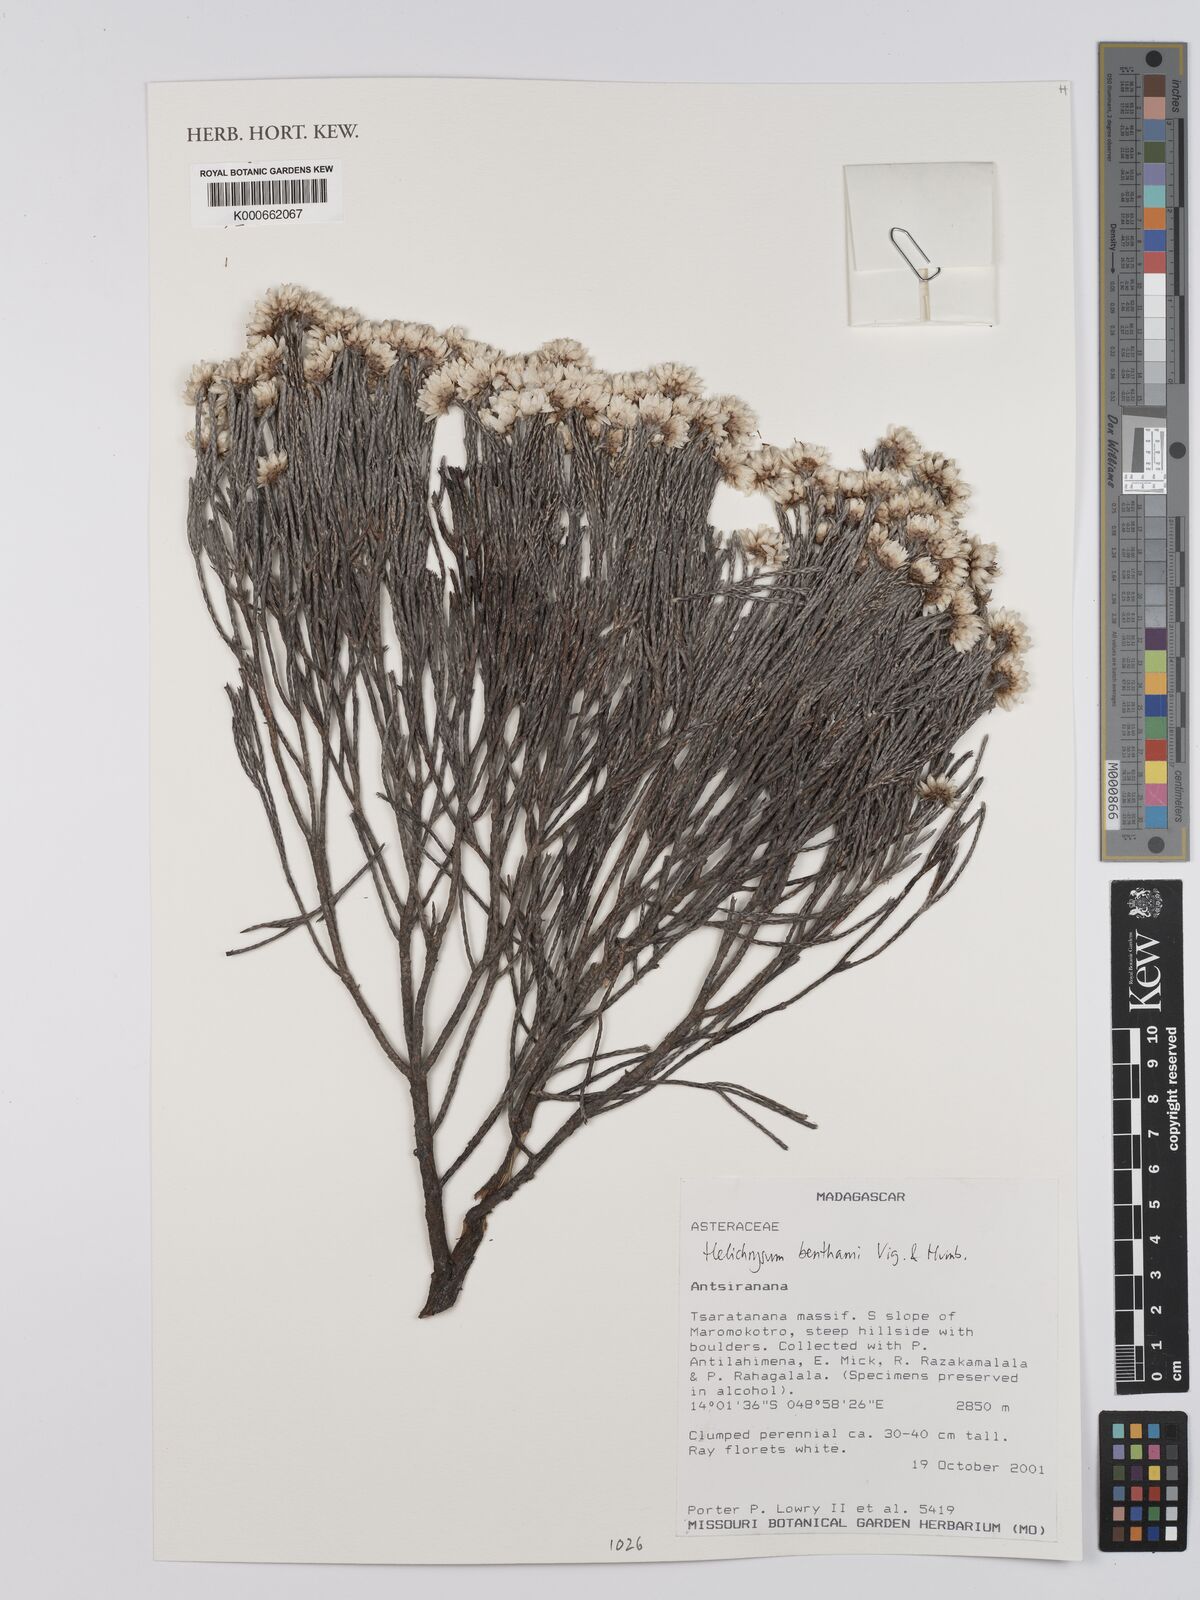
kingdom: Plantae
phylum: Tracheophyta
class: Magnoliopsida
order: Asterales
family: Asteraceae
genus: Helichrysum
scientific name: Helichrysum benthamii
